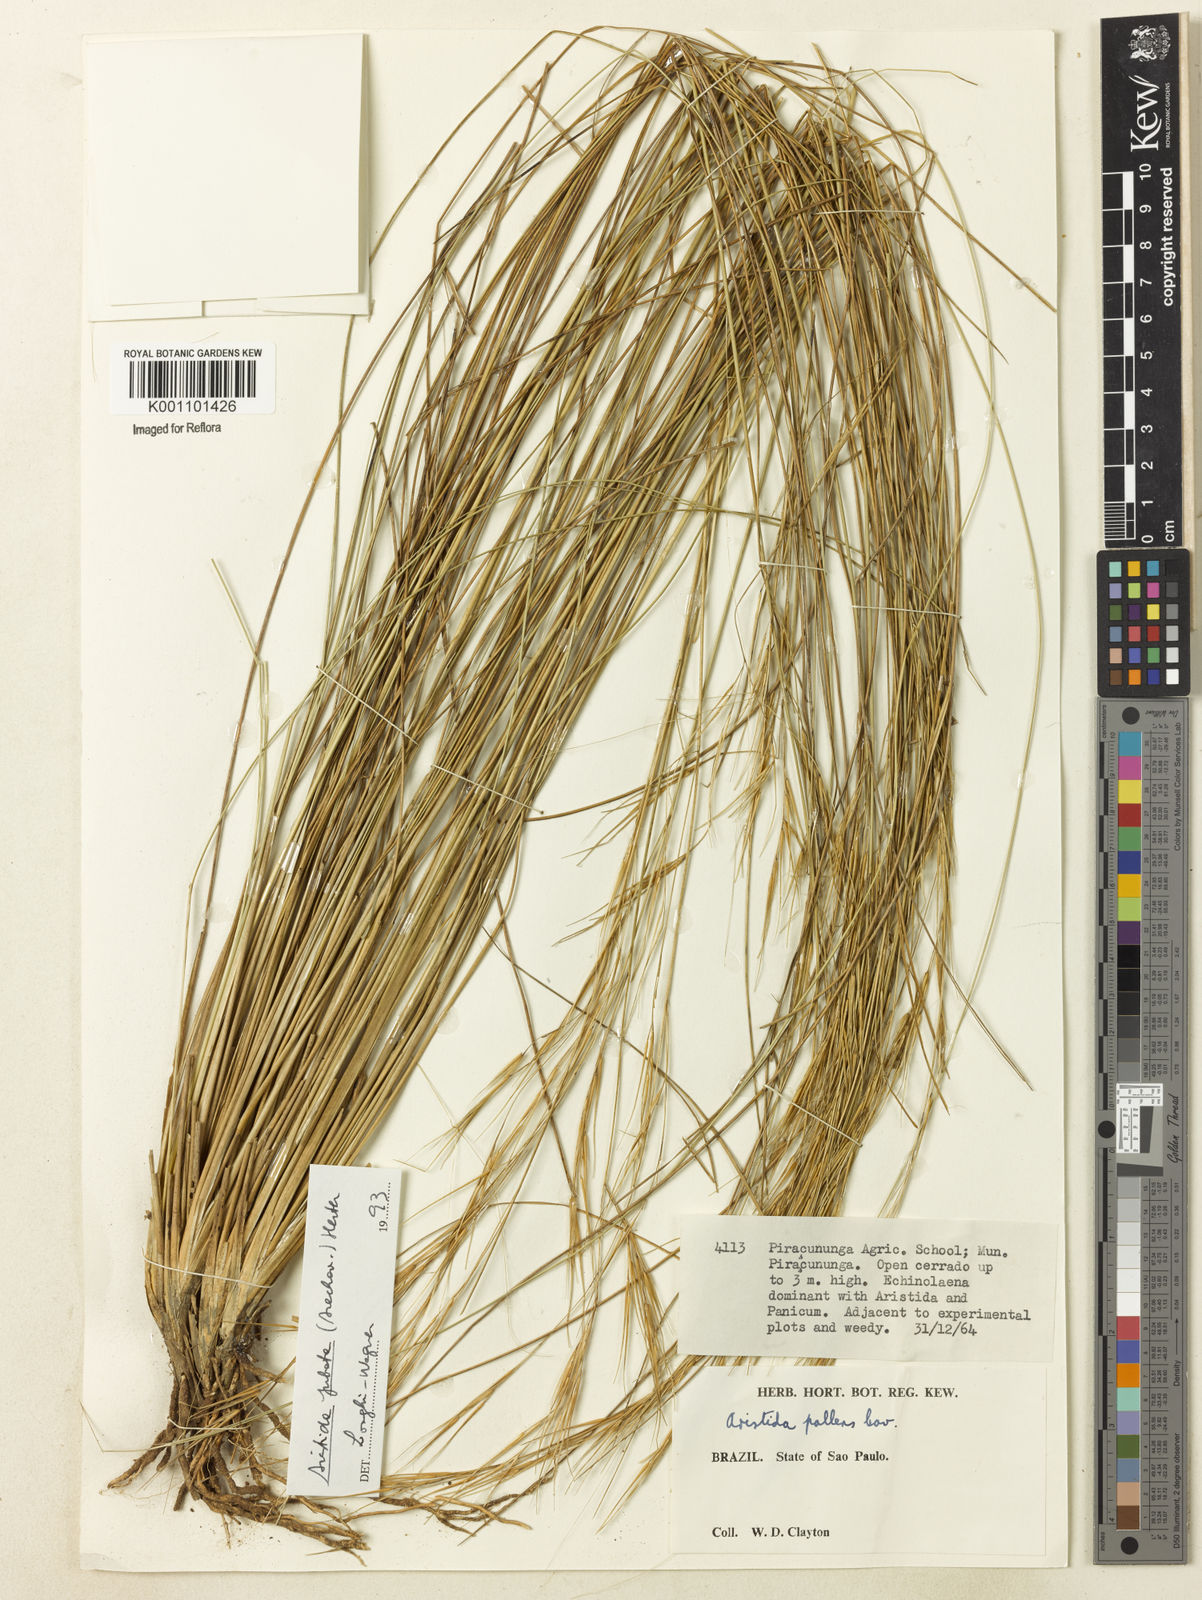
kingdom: Plantae
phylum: Tracheophyta
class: Liliopsida
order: Poales
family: Poaceae
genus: Aristida
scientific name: Aristida jubata
